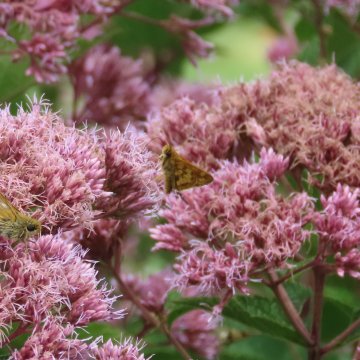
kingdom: Animalia
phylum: Arthropoda
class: Insecta
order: Lepidoptera
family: Hesperiidae
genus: Polites
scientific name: Polites coras
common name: Peck's Skipper
